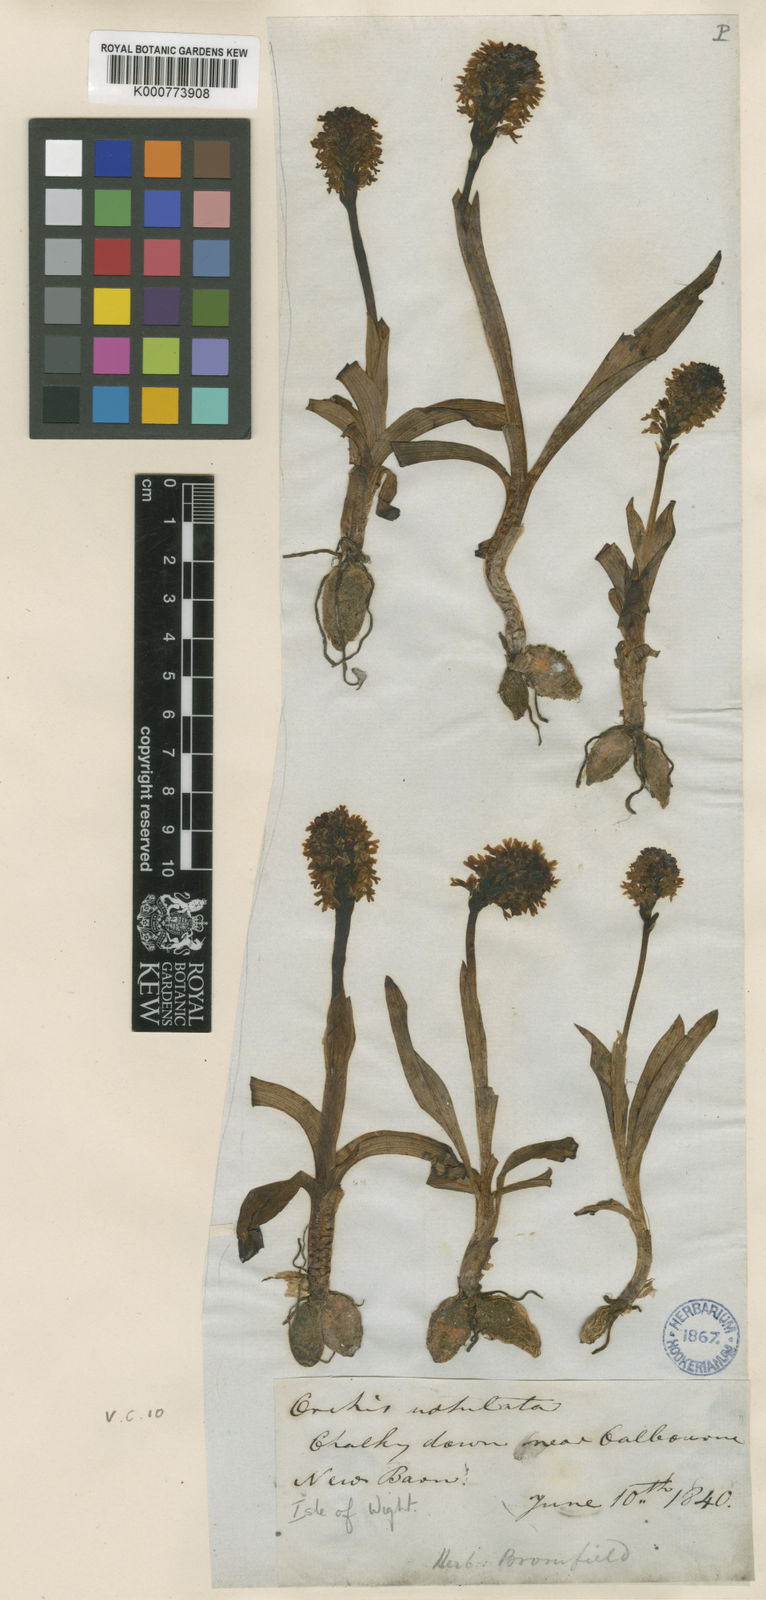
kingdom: Plantae
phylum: Tracheophyta
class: Liliopsida
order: Asparagales
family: Orchidaceae
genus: Neotinea
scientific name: Neotinea ustulata
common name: Burnt orchid
